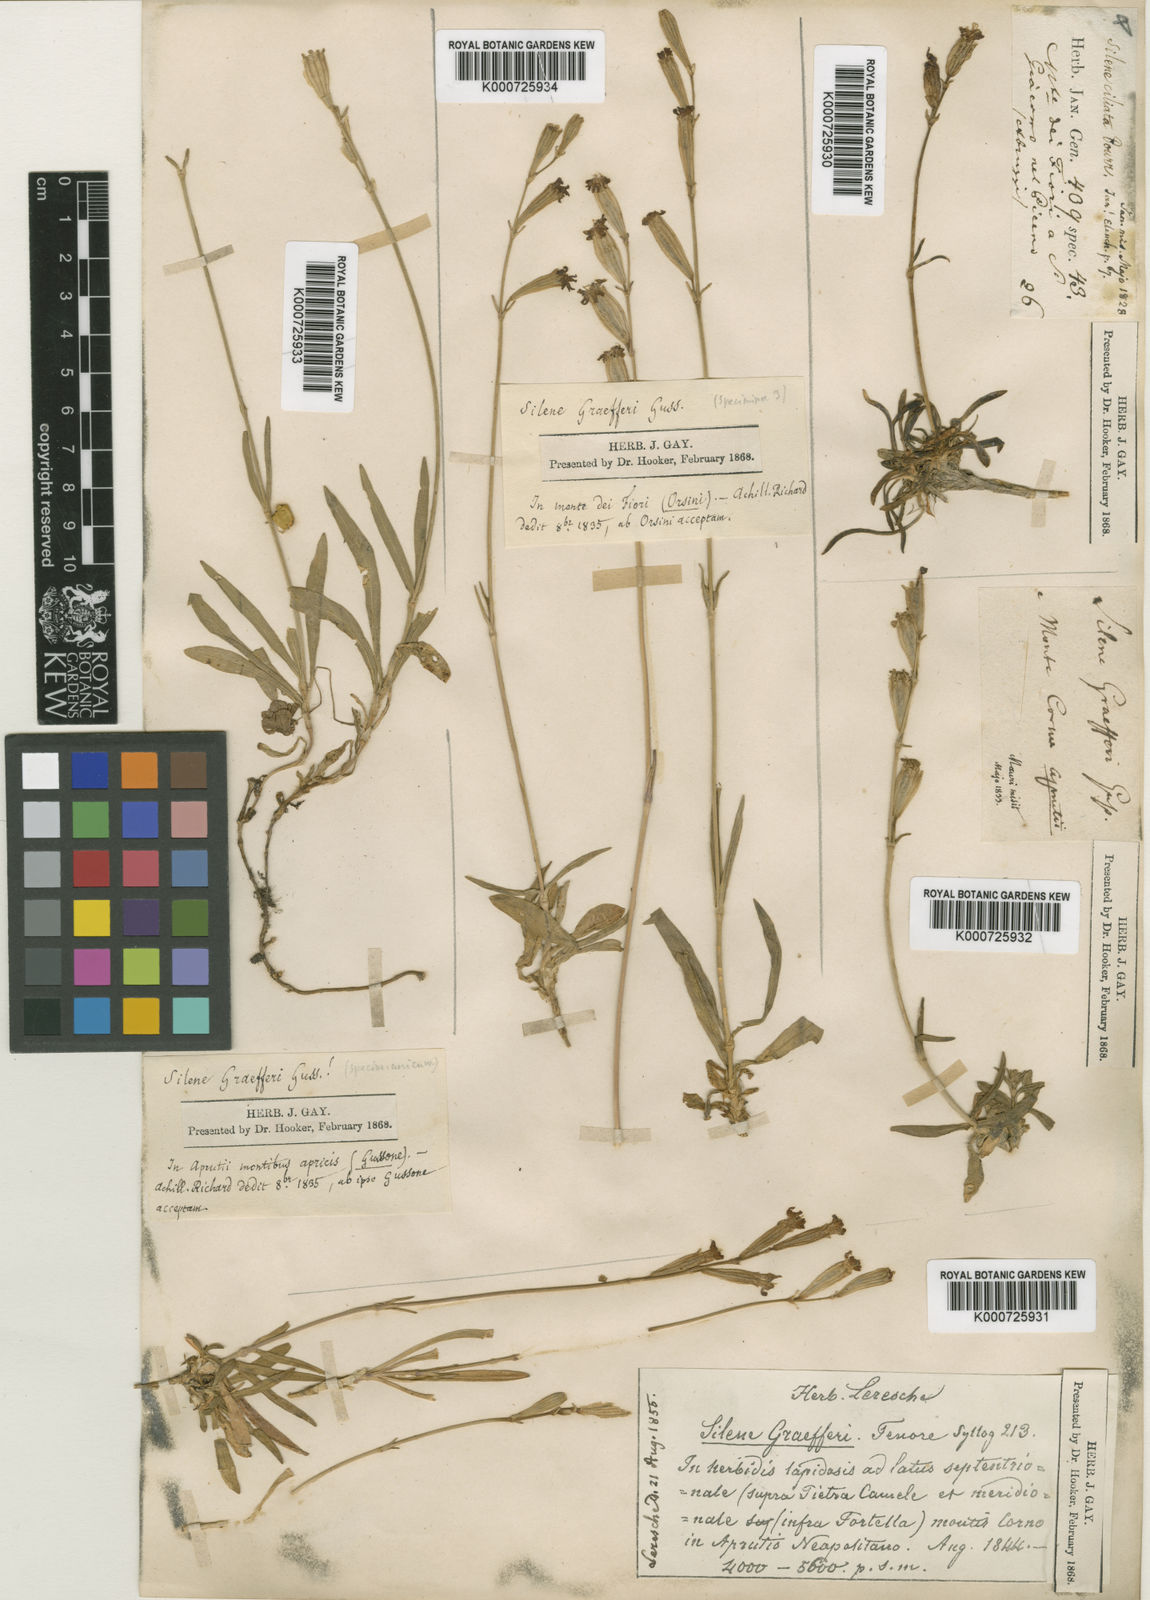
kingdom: Plantae
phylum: Tracheophyta
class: Magnoliopsida
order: Caryophyllales
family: Caryophyllaceae
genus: Silene
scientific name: Silene ciliata
